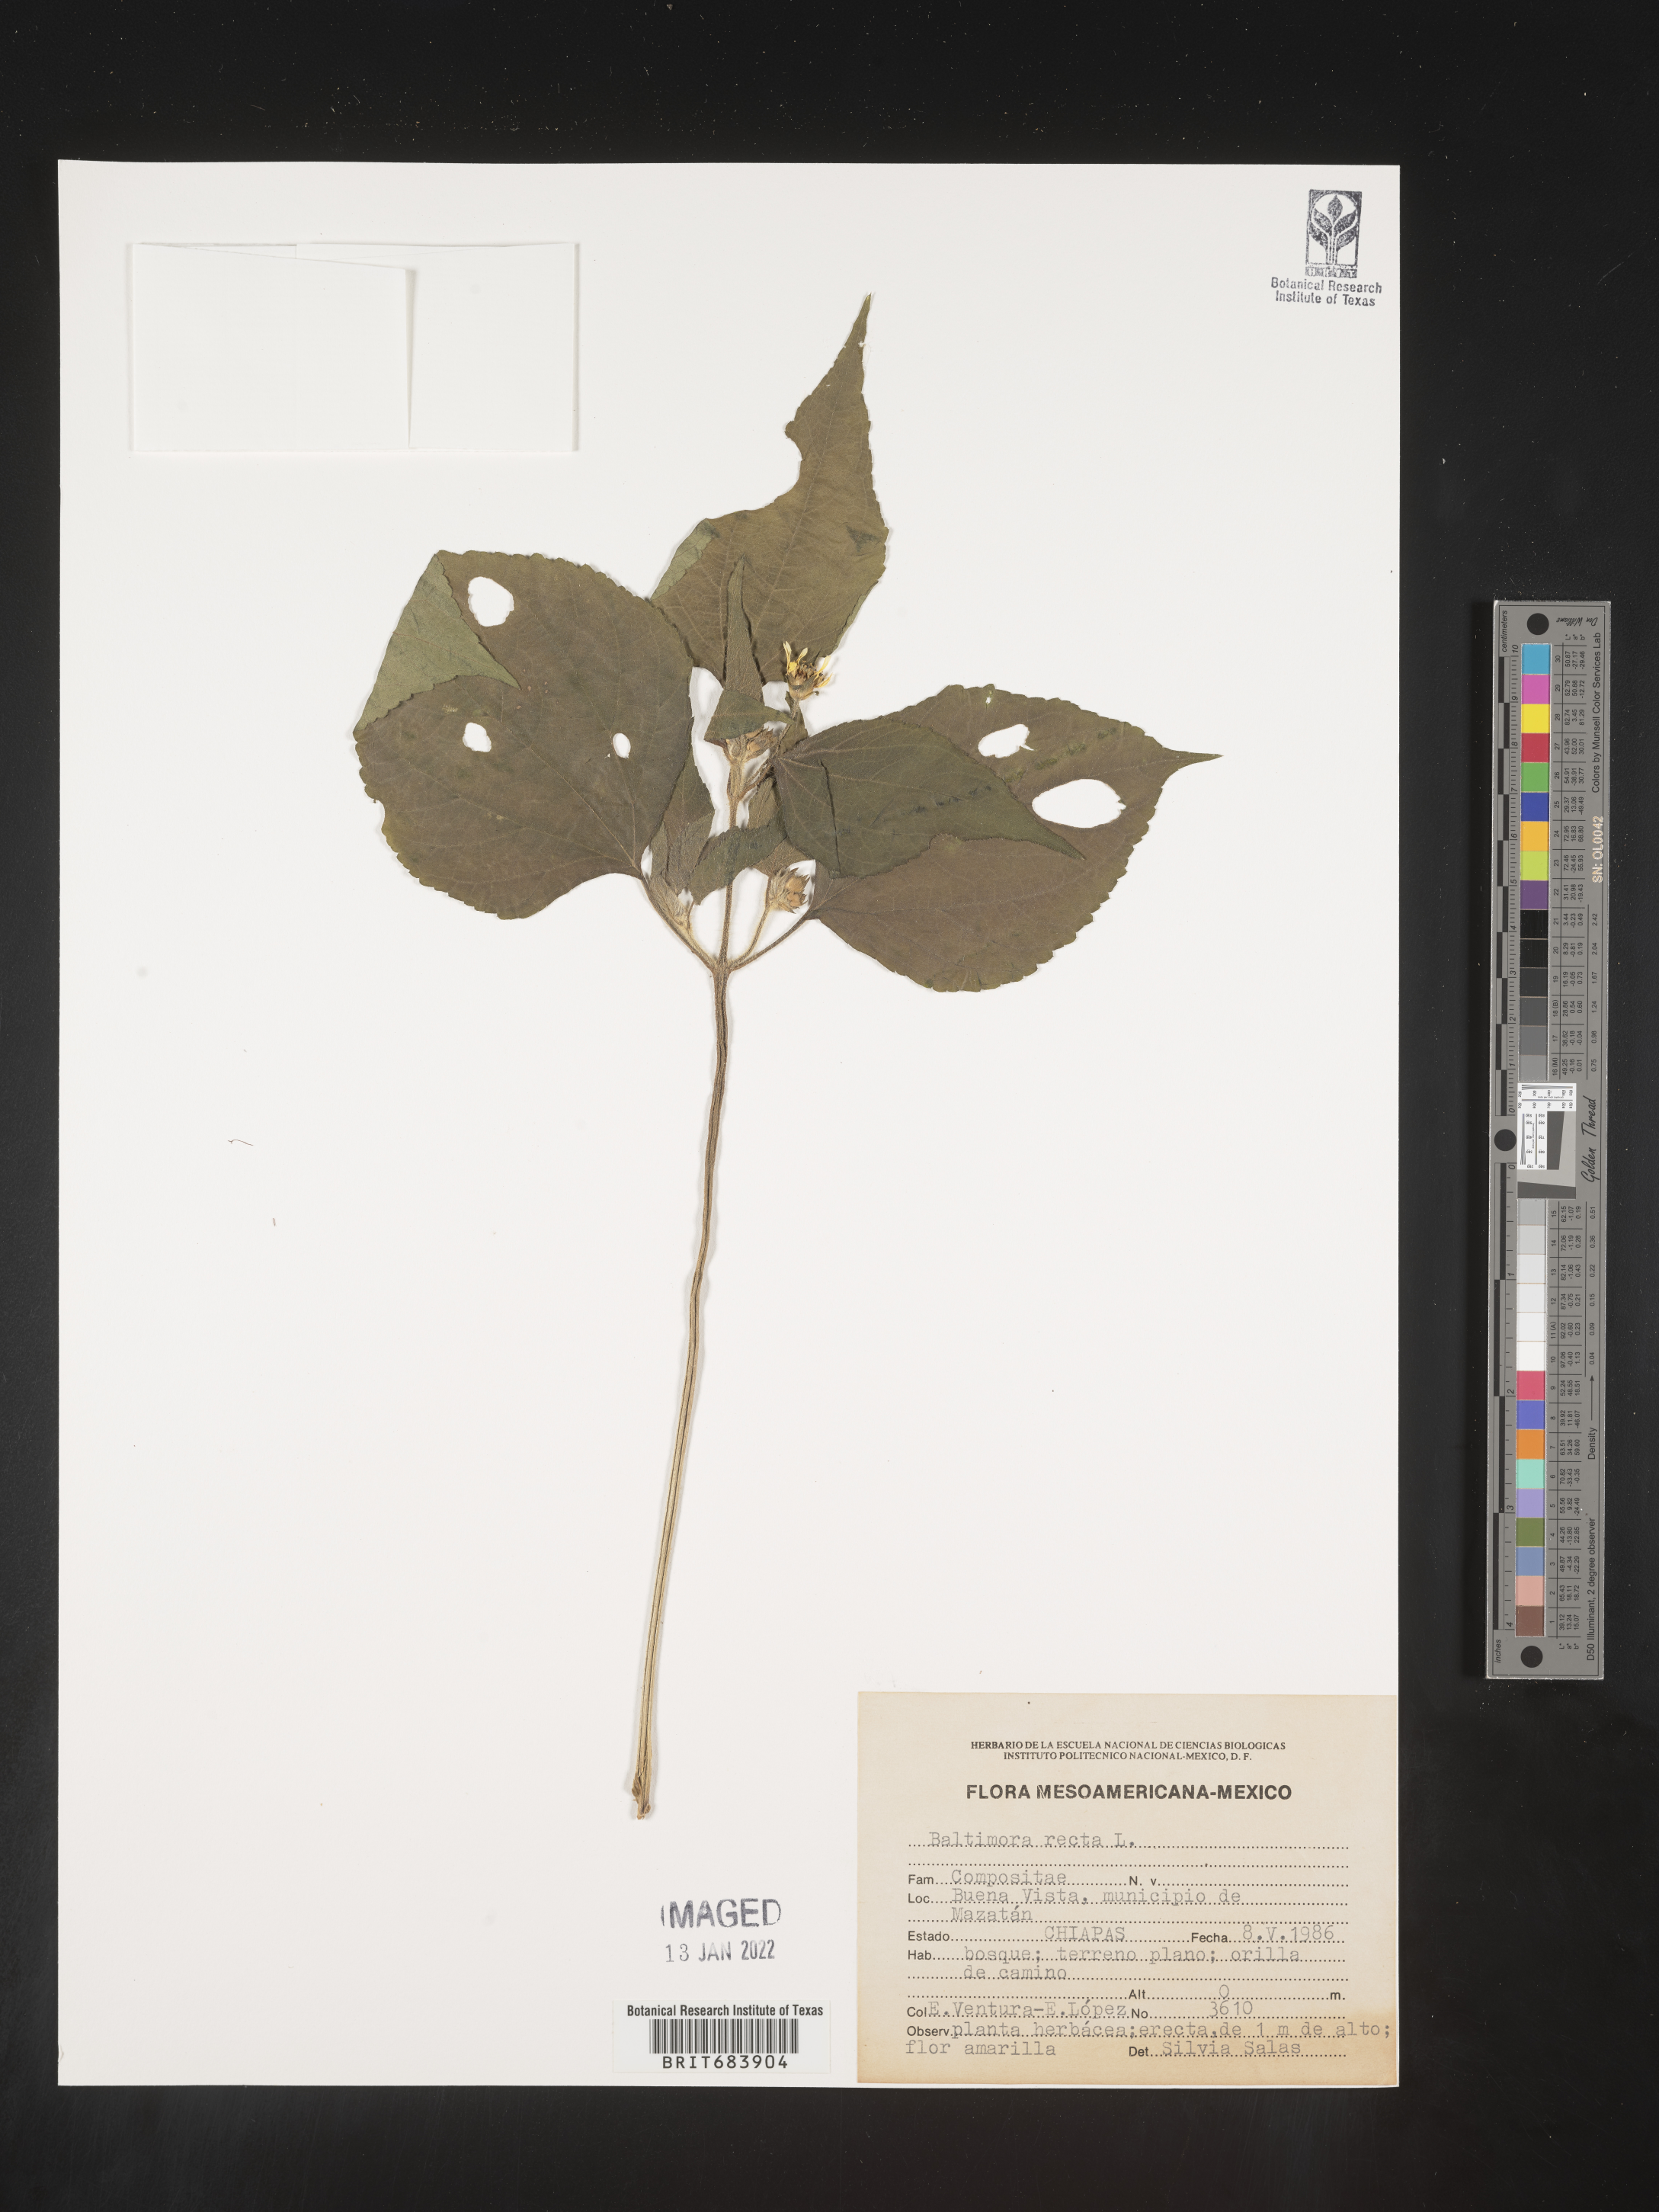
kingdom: Plantae
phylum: Tracheophyta
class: Magnoliopsida
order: Asterales
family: Asteraceae
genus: Baltimora
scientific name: Baltimora
